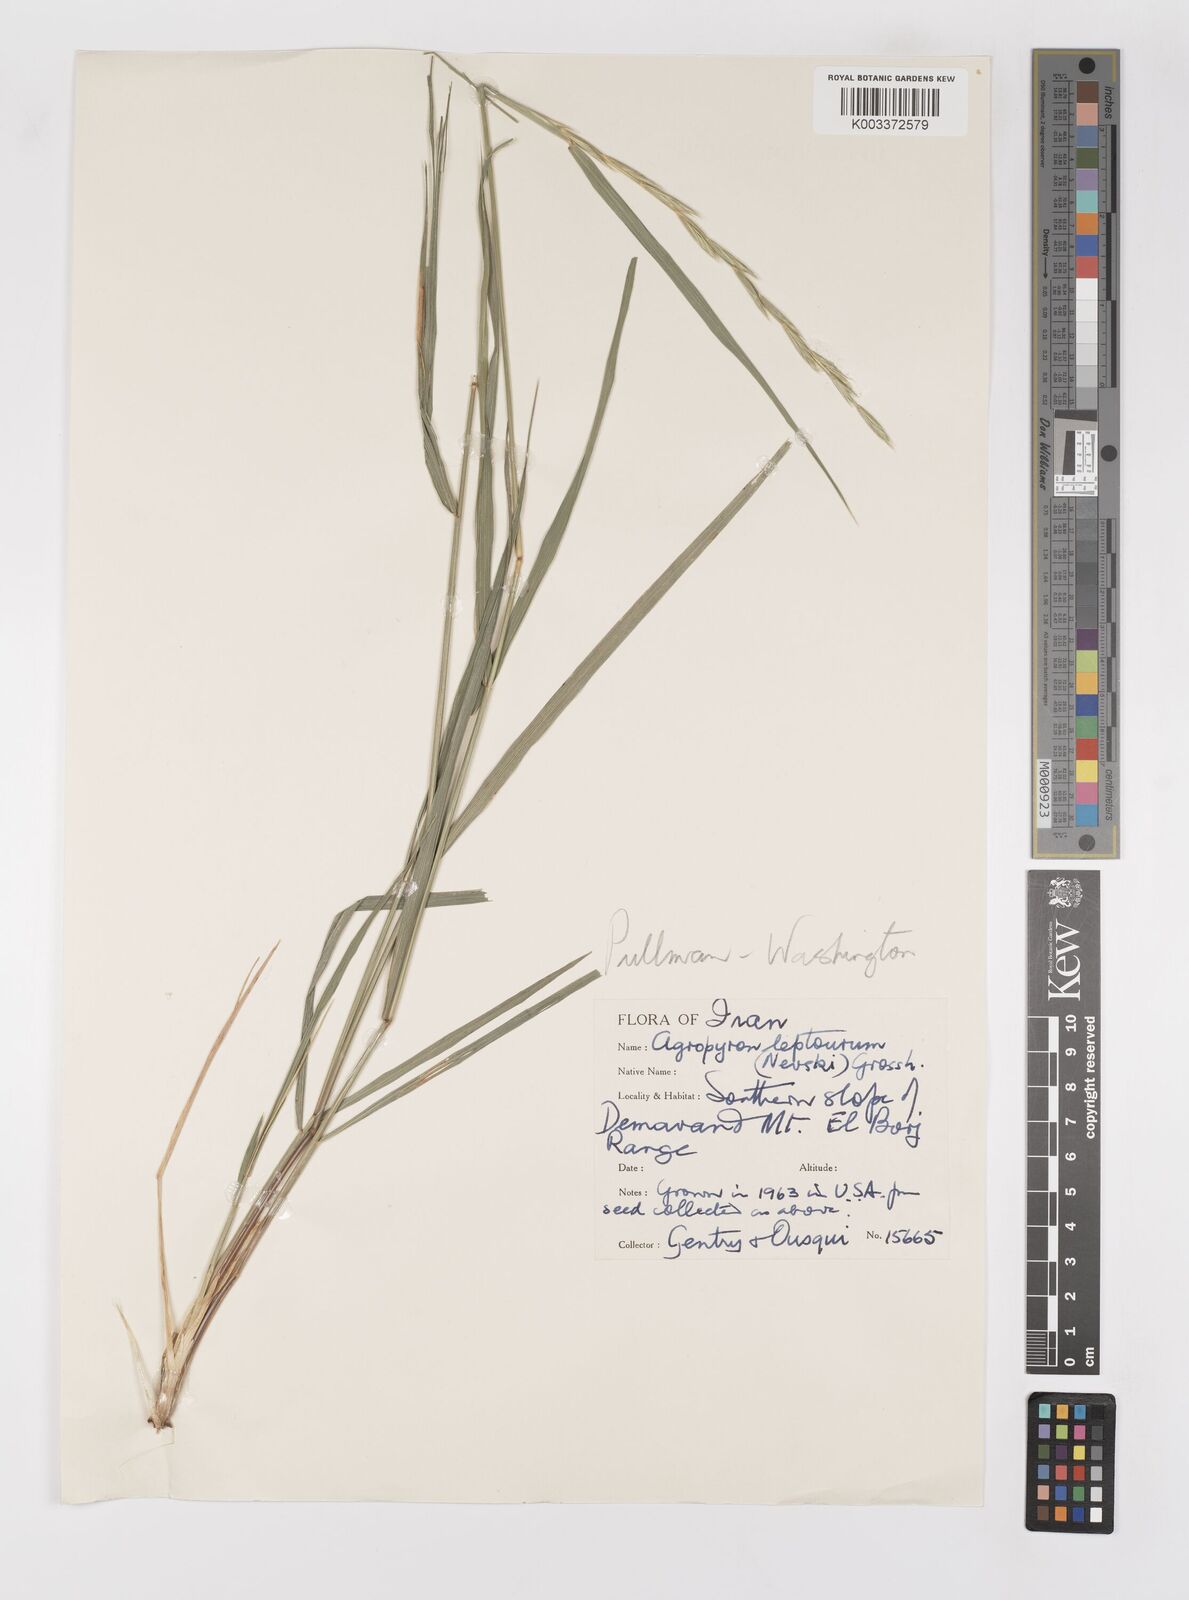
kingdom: Plantae
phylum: Tracheophyta
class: Liliopsida
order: Poales
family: Poaceae
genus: Elymus
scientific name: Elymus transhyrcanus
